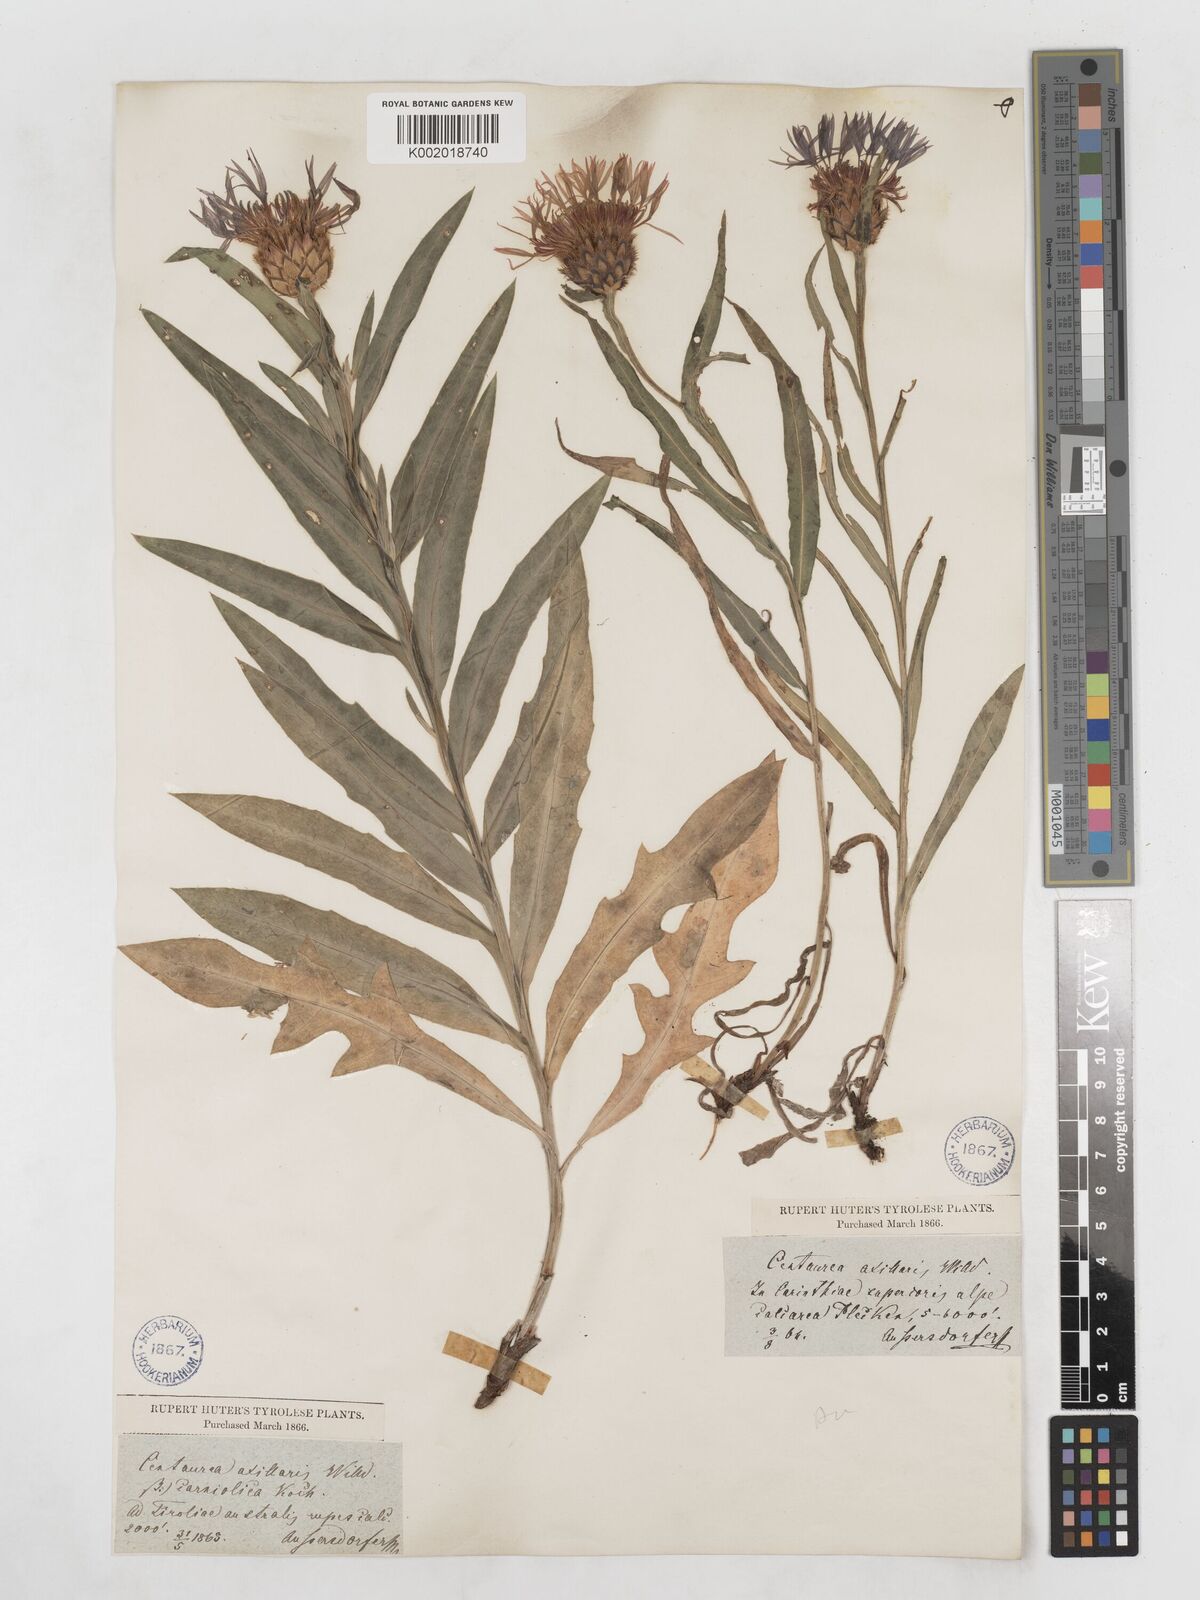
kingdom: Plantae
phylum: Tracheophyta
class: Magnoliopsida
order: Asterales
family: Asteraceae
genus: Centaurea
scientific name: Centaurea triumfettii
